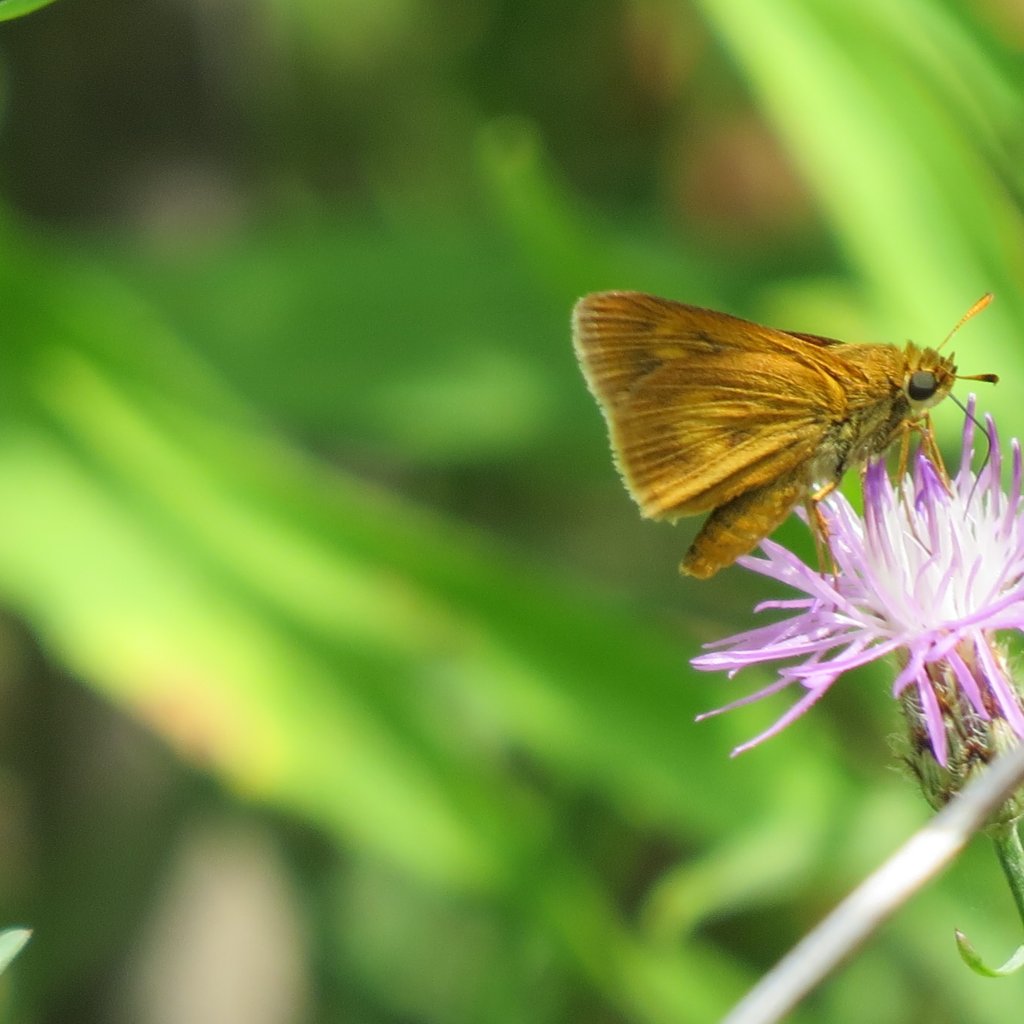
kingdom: Animalia
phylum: Arthropoda
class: Insecta
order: Lepidoptera
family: Hesperiidae
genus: Euphyes
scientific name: Euphyes conspicua
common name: Black Dash
